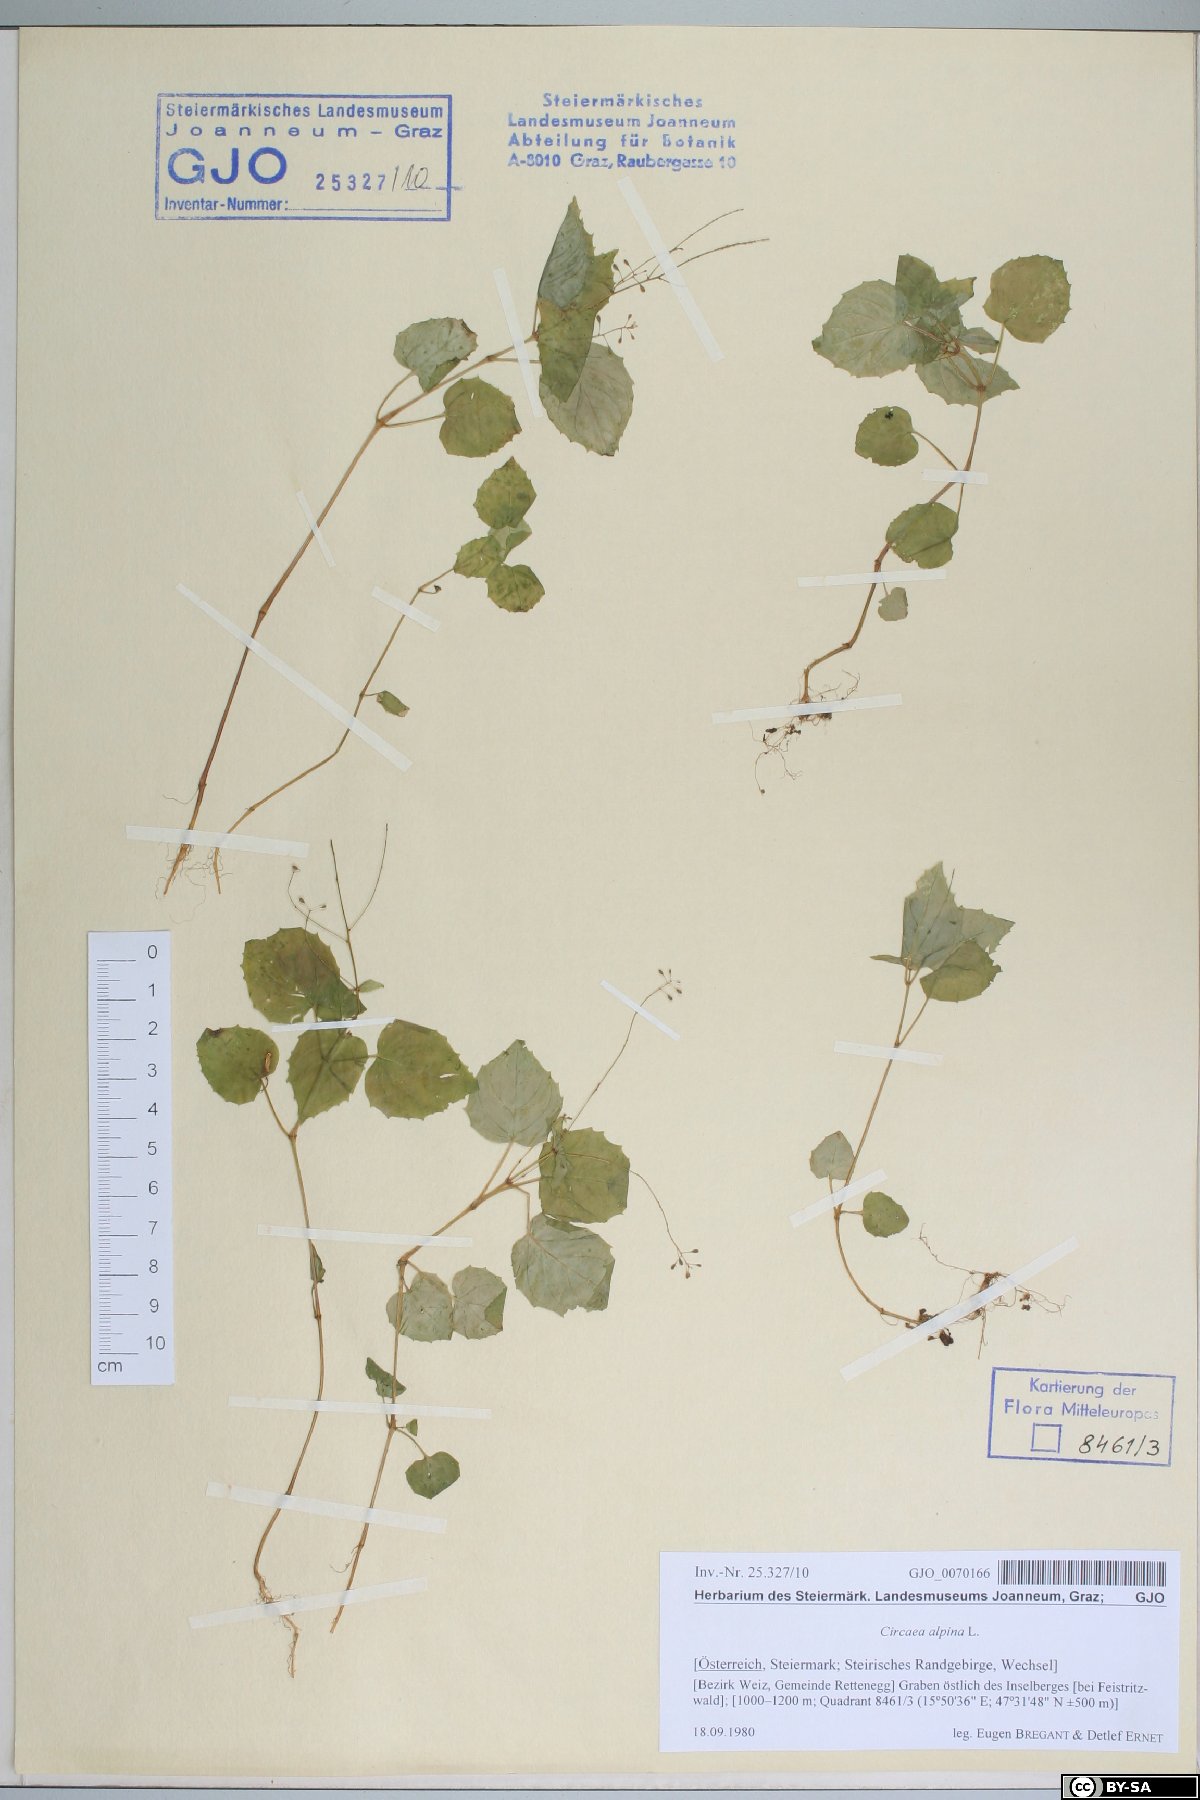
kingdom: Plantae
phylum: Tracheophyta
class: Magnoliopsida
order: Myrtales
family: Onagraceae
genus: Circaea
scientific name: Circaea alpina
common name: Alpine enchanter's-nightshade
